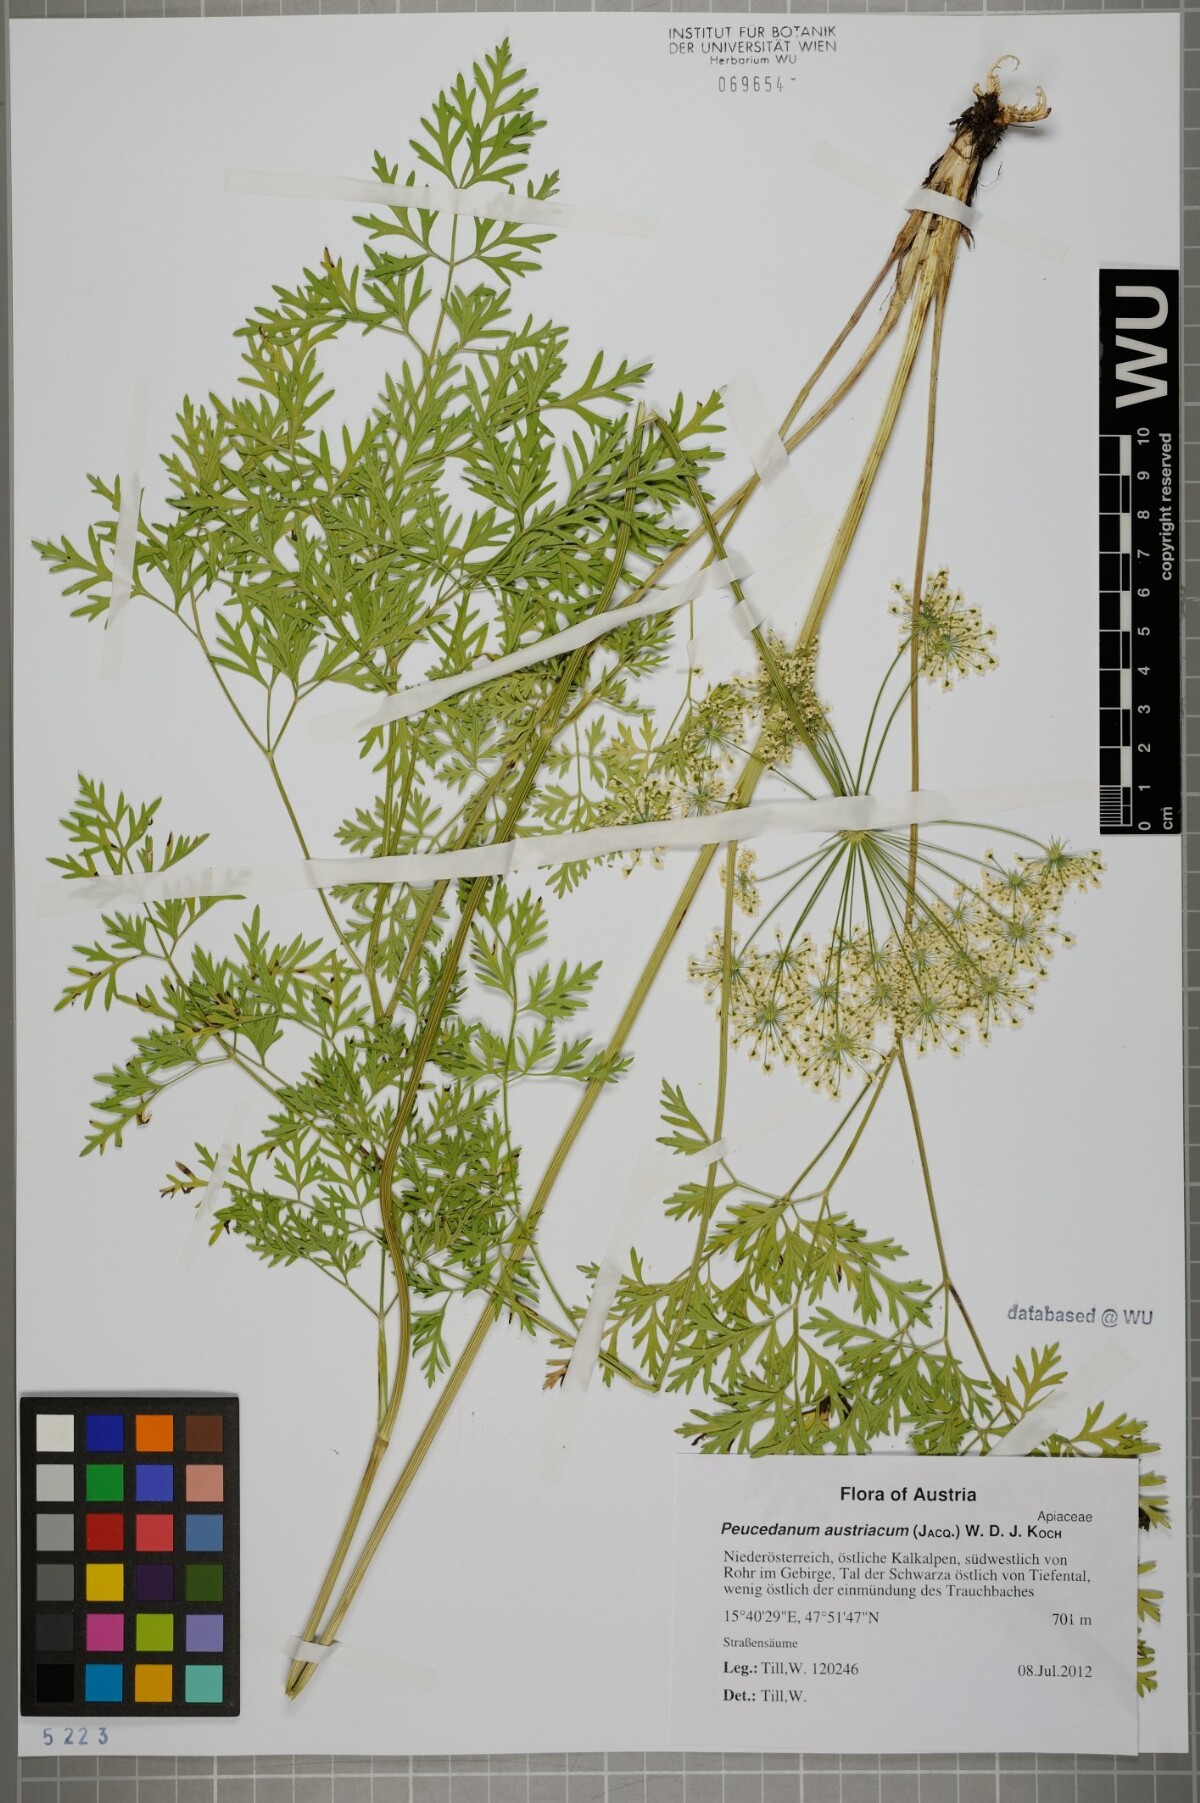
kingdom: Plantae
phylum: Tracheophyta
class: Magnoliopsida
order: Apiales
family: Apiaceae
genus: Peucedanum
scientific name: Peucedanum austriacum
